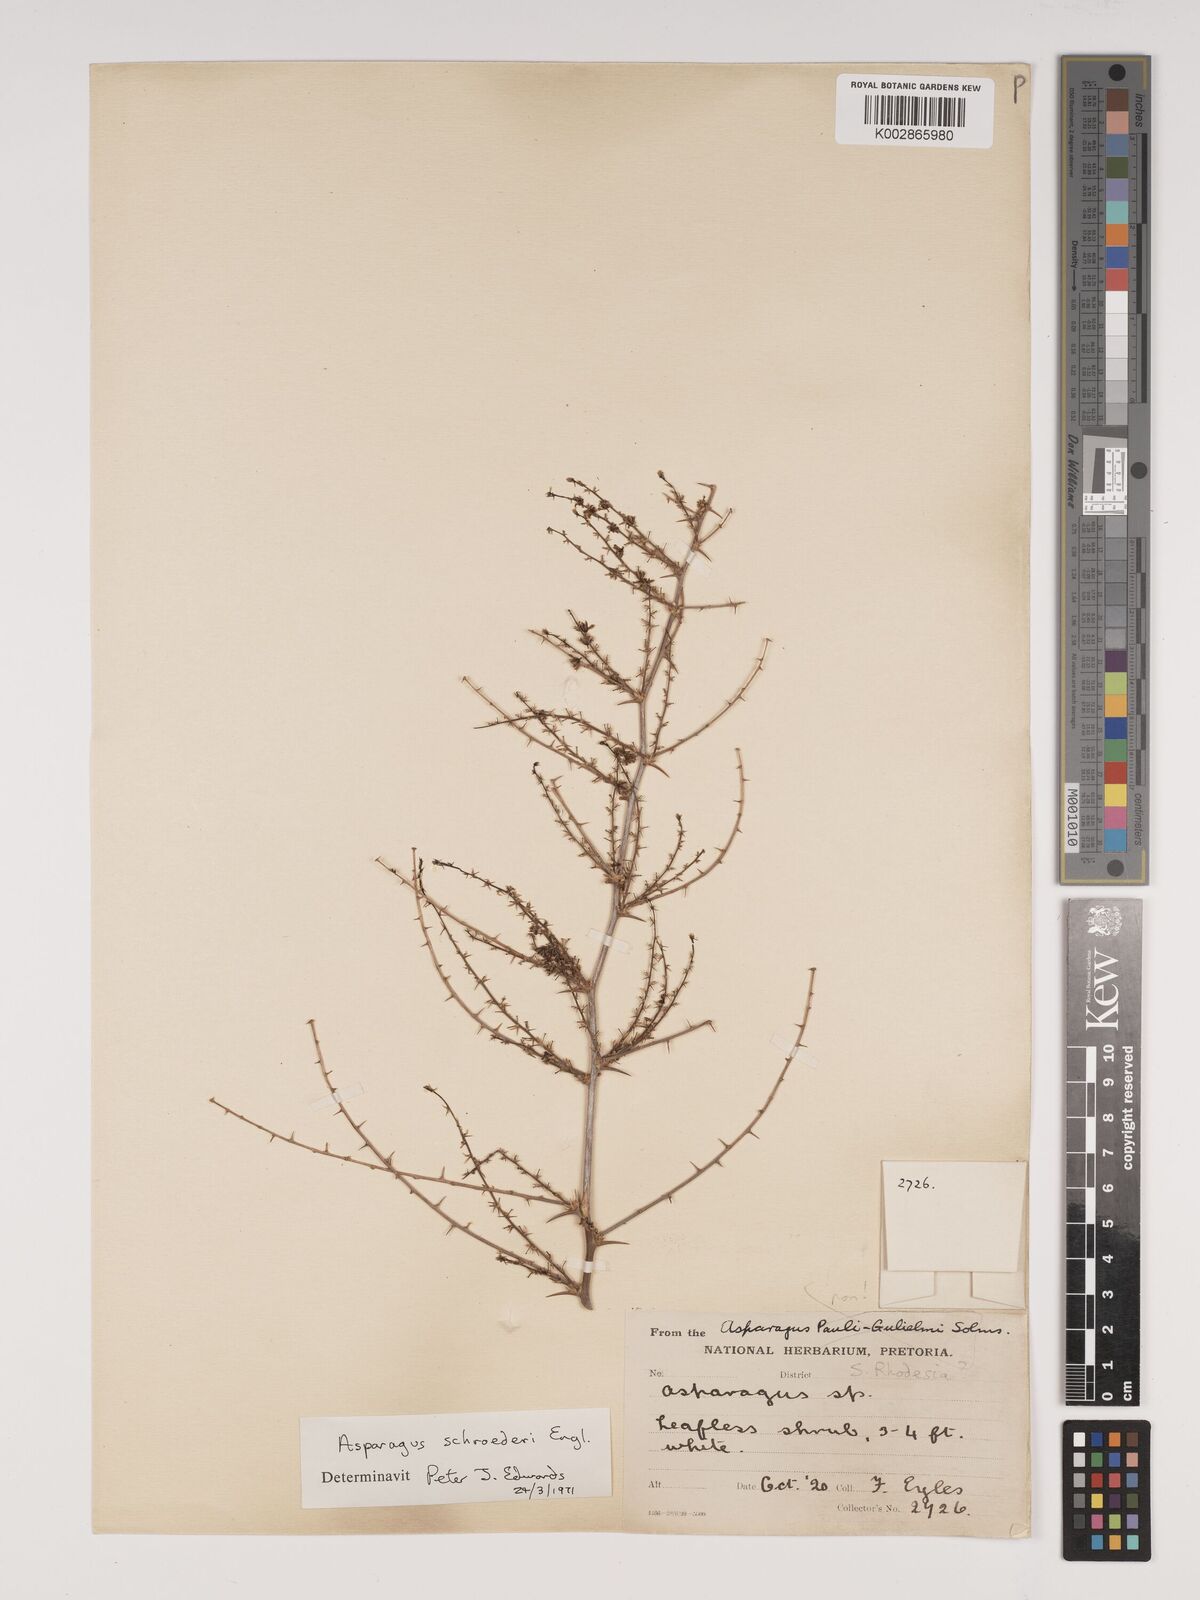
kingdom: Plantae
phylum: Tracheophyta
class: Liliopsida
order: Asparagales
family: Asparagaceae
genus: Asparagus
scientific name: Asparagus schroederi
